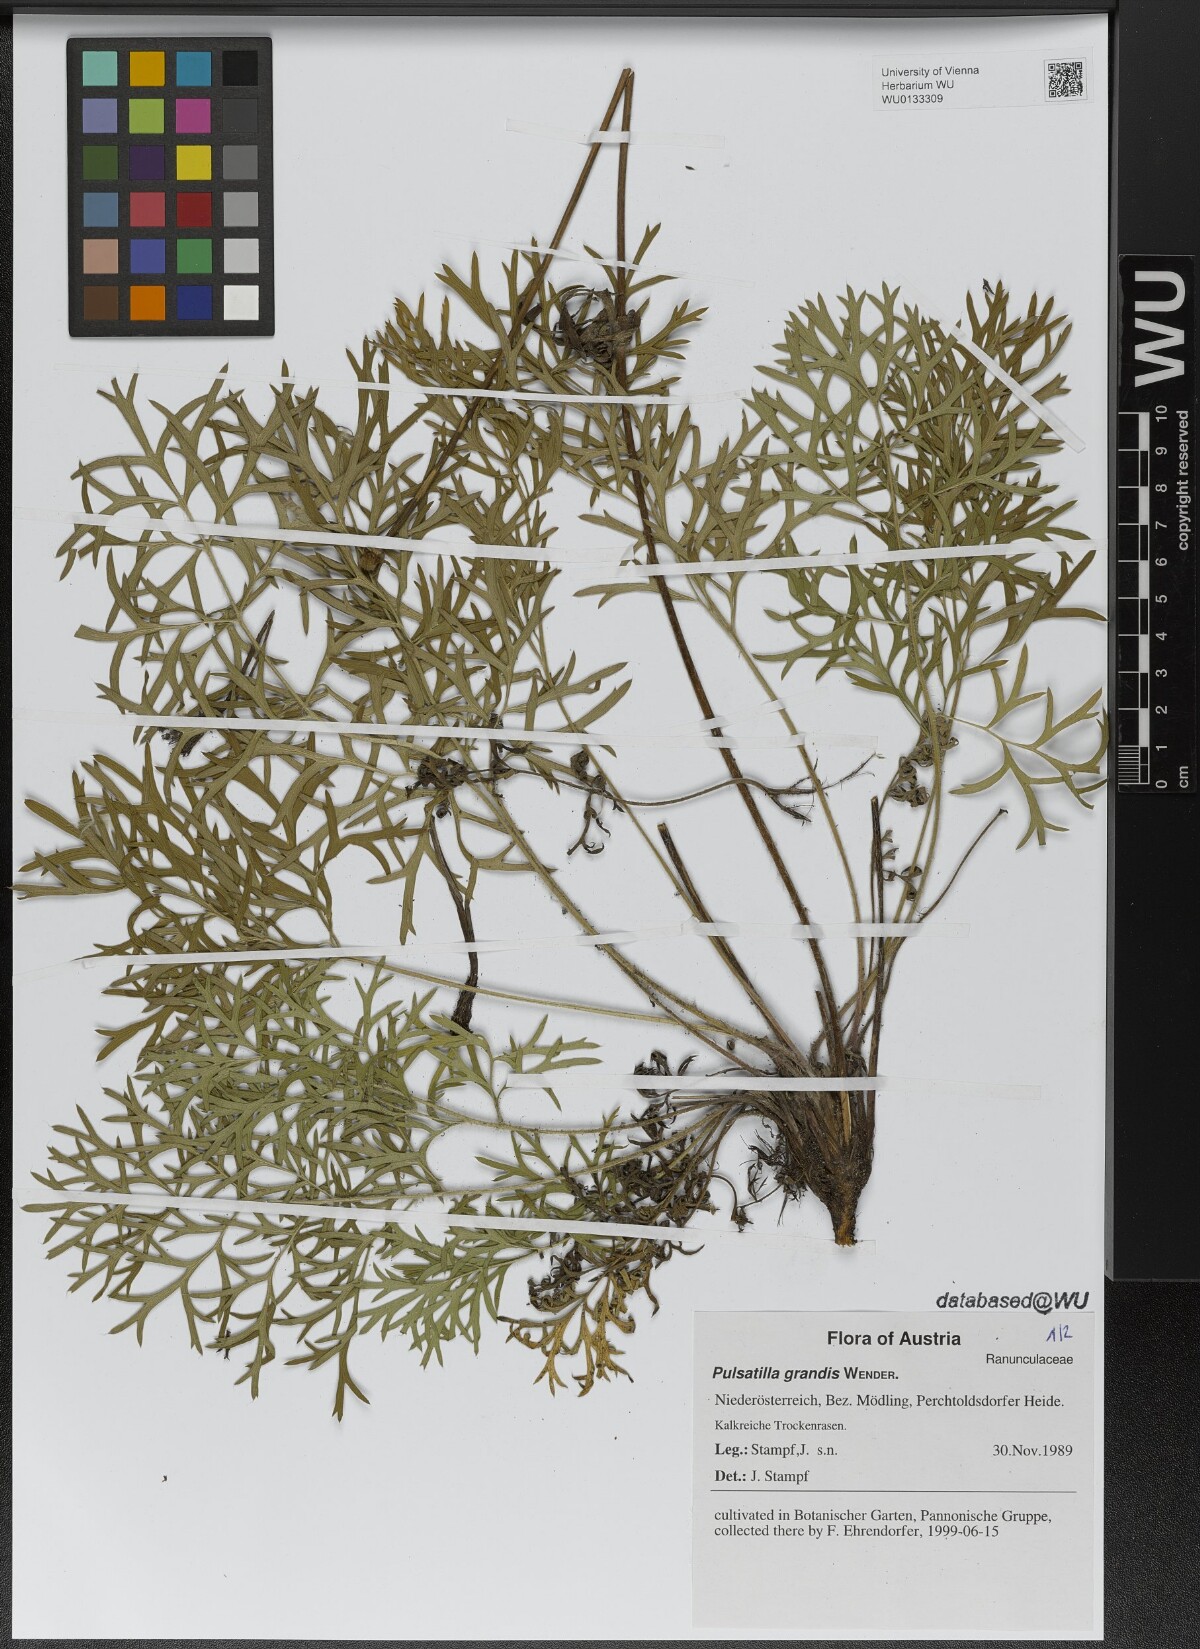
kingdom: Plantae
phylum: Tracheophyta
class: Magnoliopsida
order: Ranunculales
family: Ranunculaceae
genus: Pulsatilla
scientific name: Pulsatilla grandis
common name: Greater pasque flower
